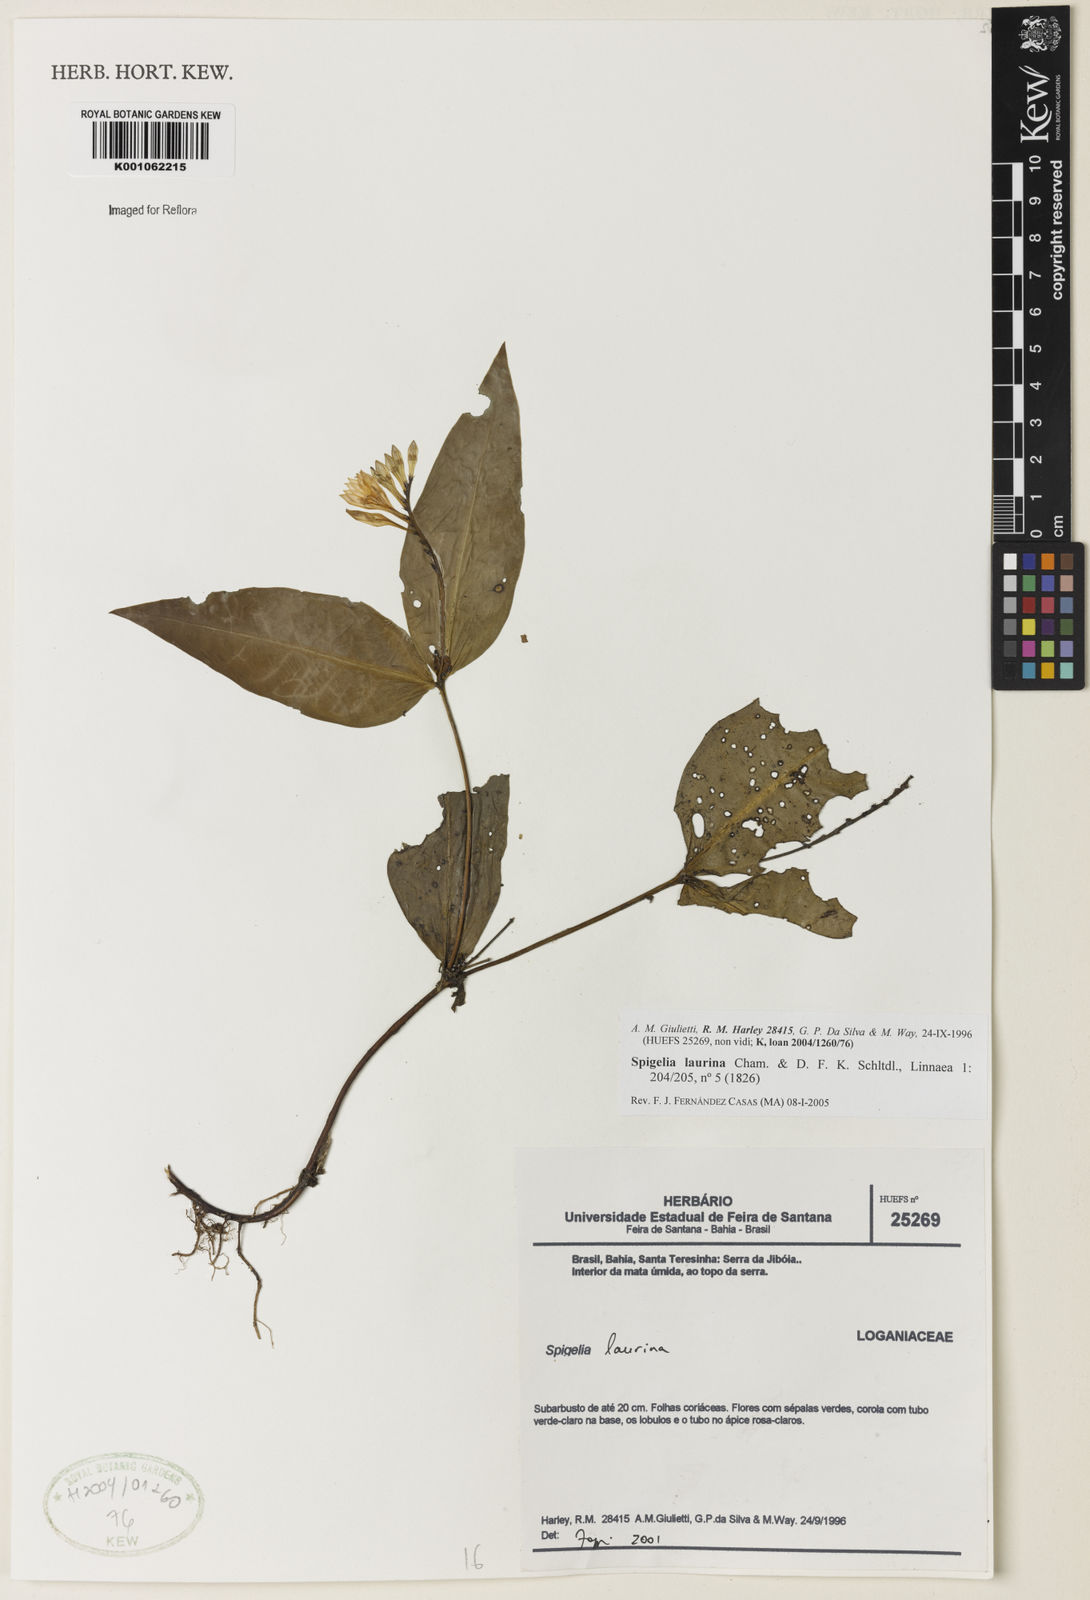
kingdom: Plantae
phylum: Tracheophyta
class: Magnoliopsida
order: Gentianales
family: Loganiaceae
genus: Spigelia
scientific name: Spigelia laurina
